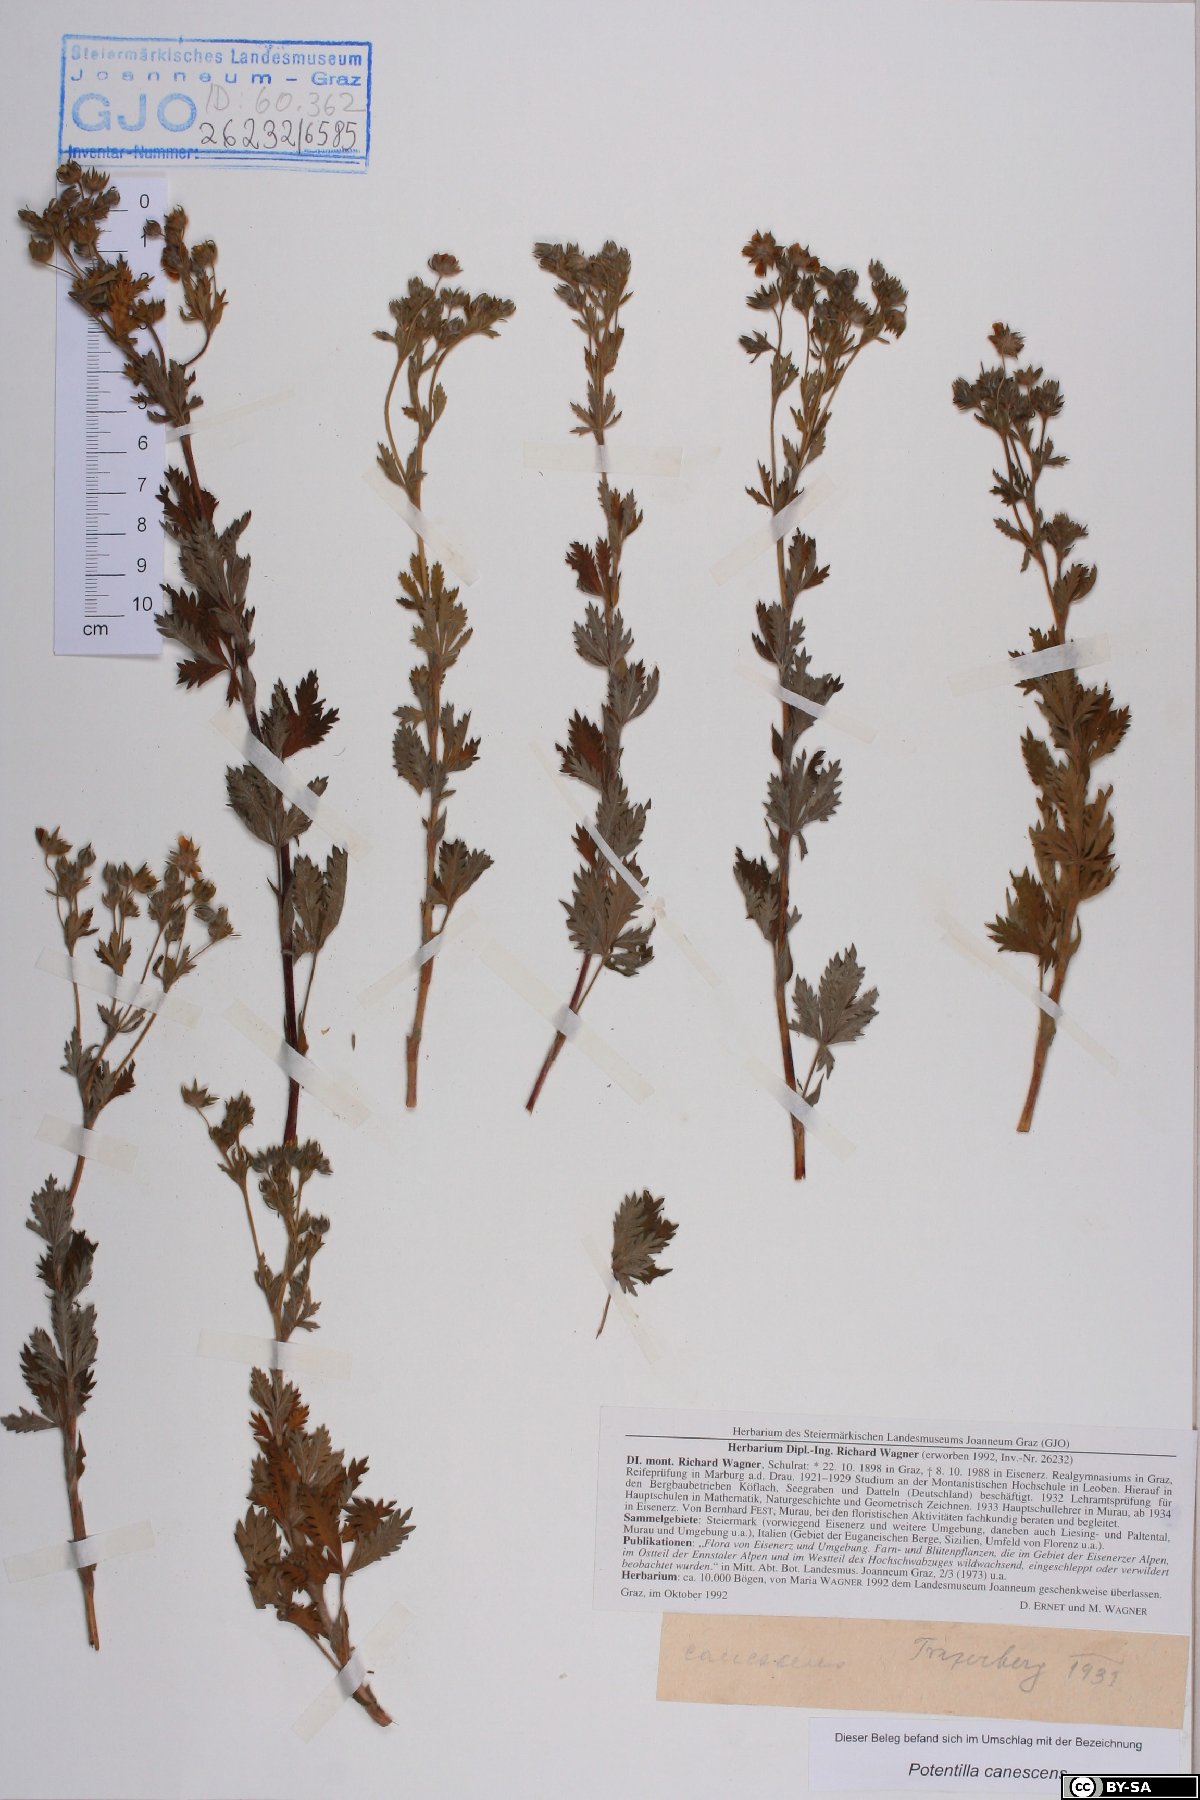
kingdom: Plantae
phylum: Tracheophyta
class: Magnoliopsida
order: Rosales
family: Rosaceae
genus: Potentilla
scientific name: Potentilla inclinata
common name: Grey cinquefoil
